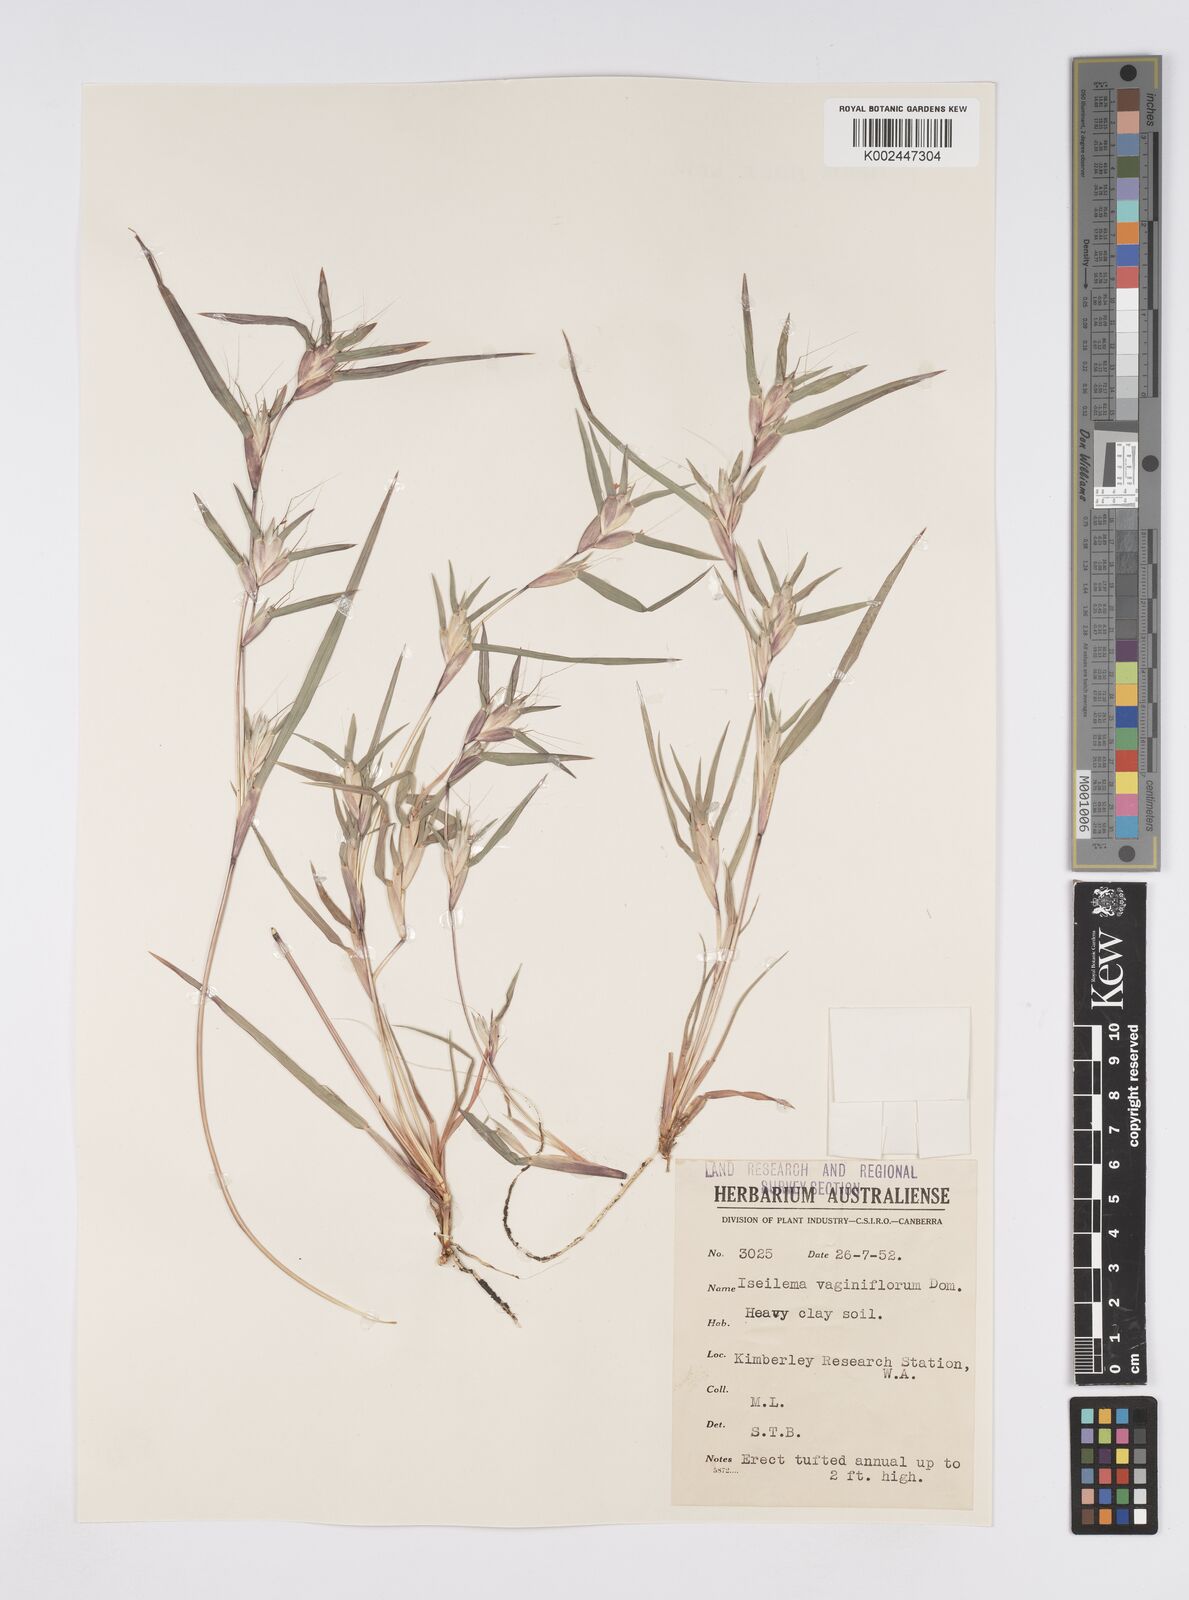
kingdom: Plantae
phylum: Tracheophyta
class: Liliopsida
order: Poales
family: Poaceae
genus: Iseilema
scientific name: Iseilema vaginiflorum
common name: Red flinders grass
